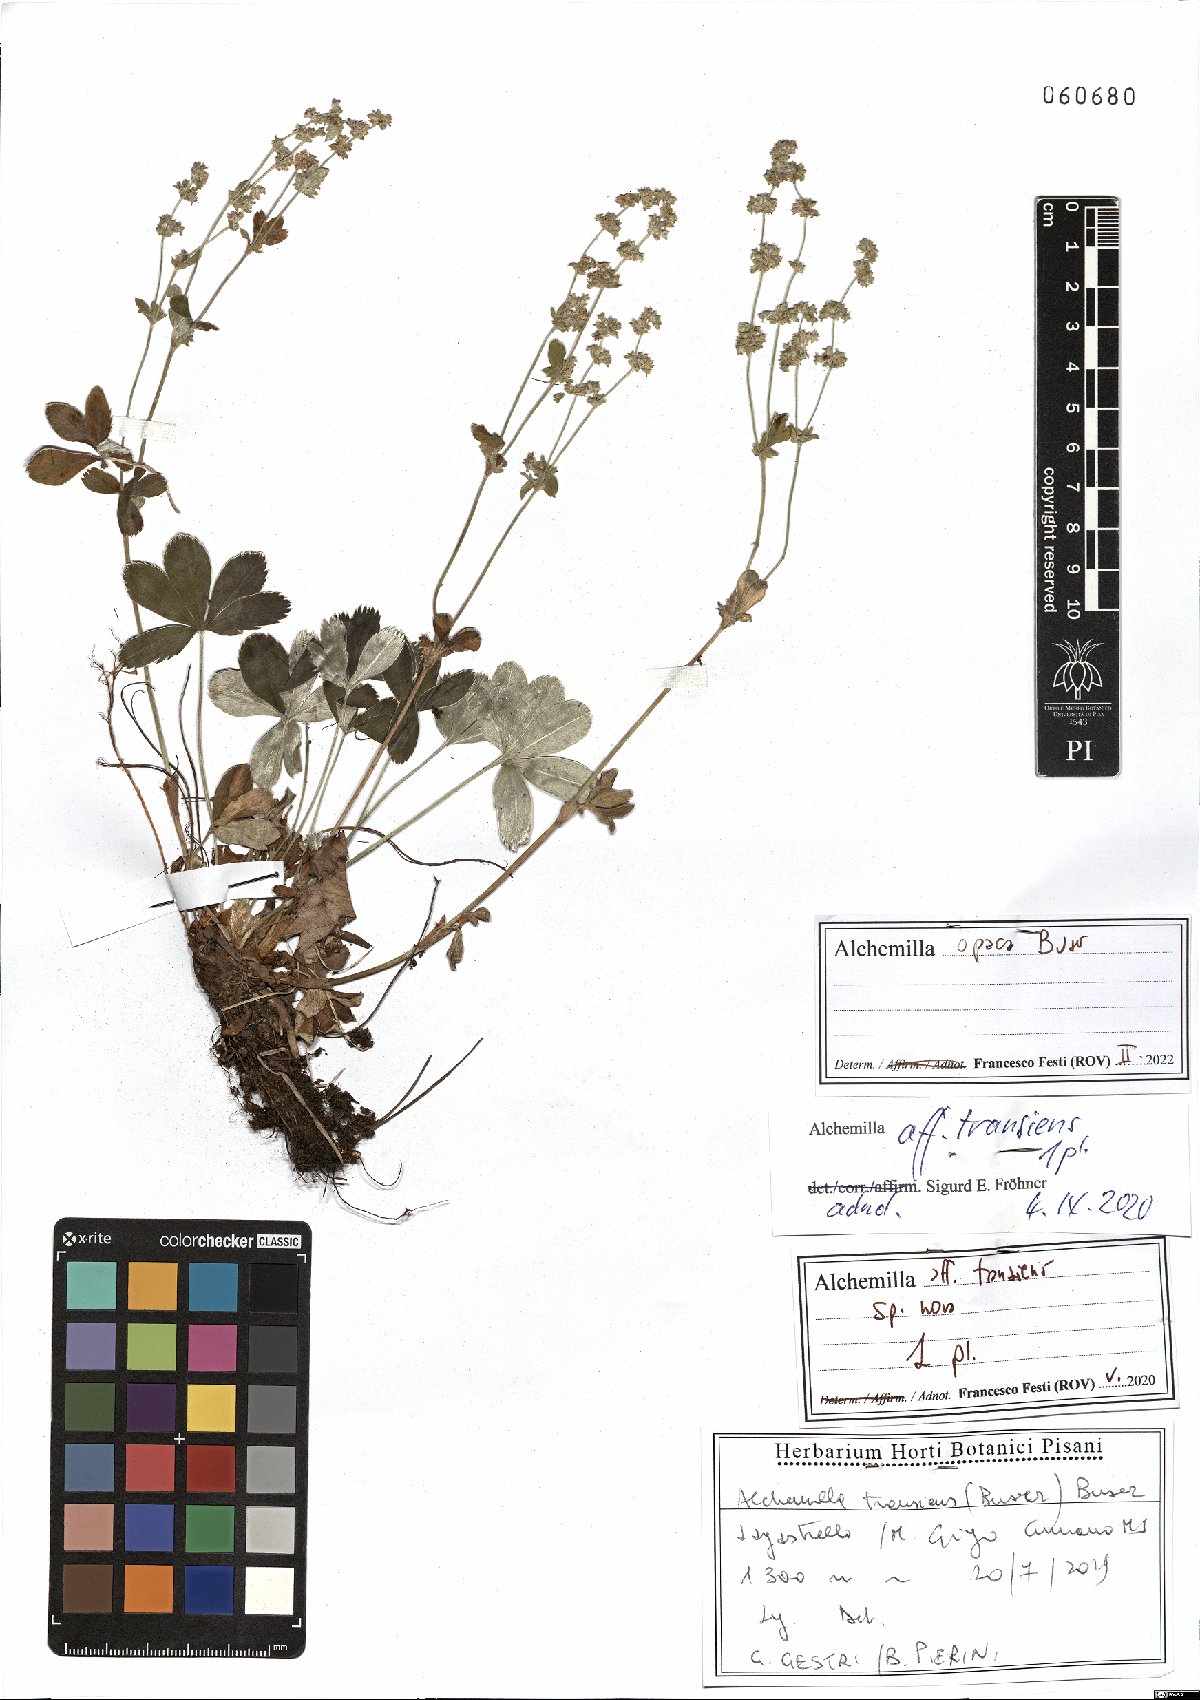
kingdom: Plantae
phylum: Tracheophyta
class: Magnoliopsida
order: Rosales
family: Rosaceae
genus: Alchemilla
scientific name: Alchemilla opaca
